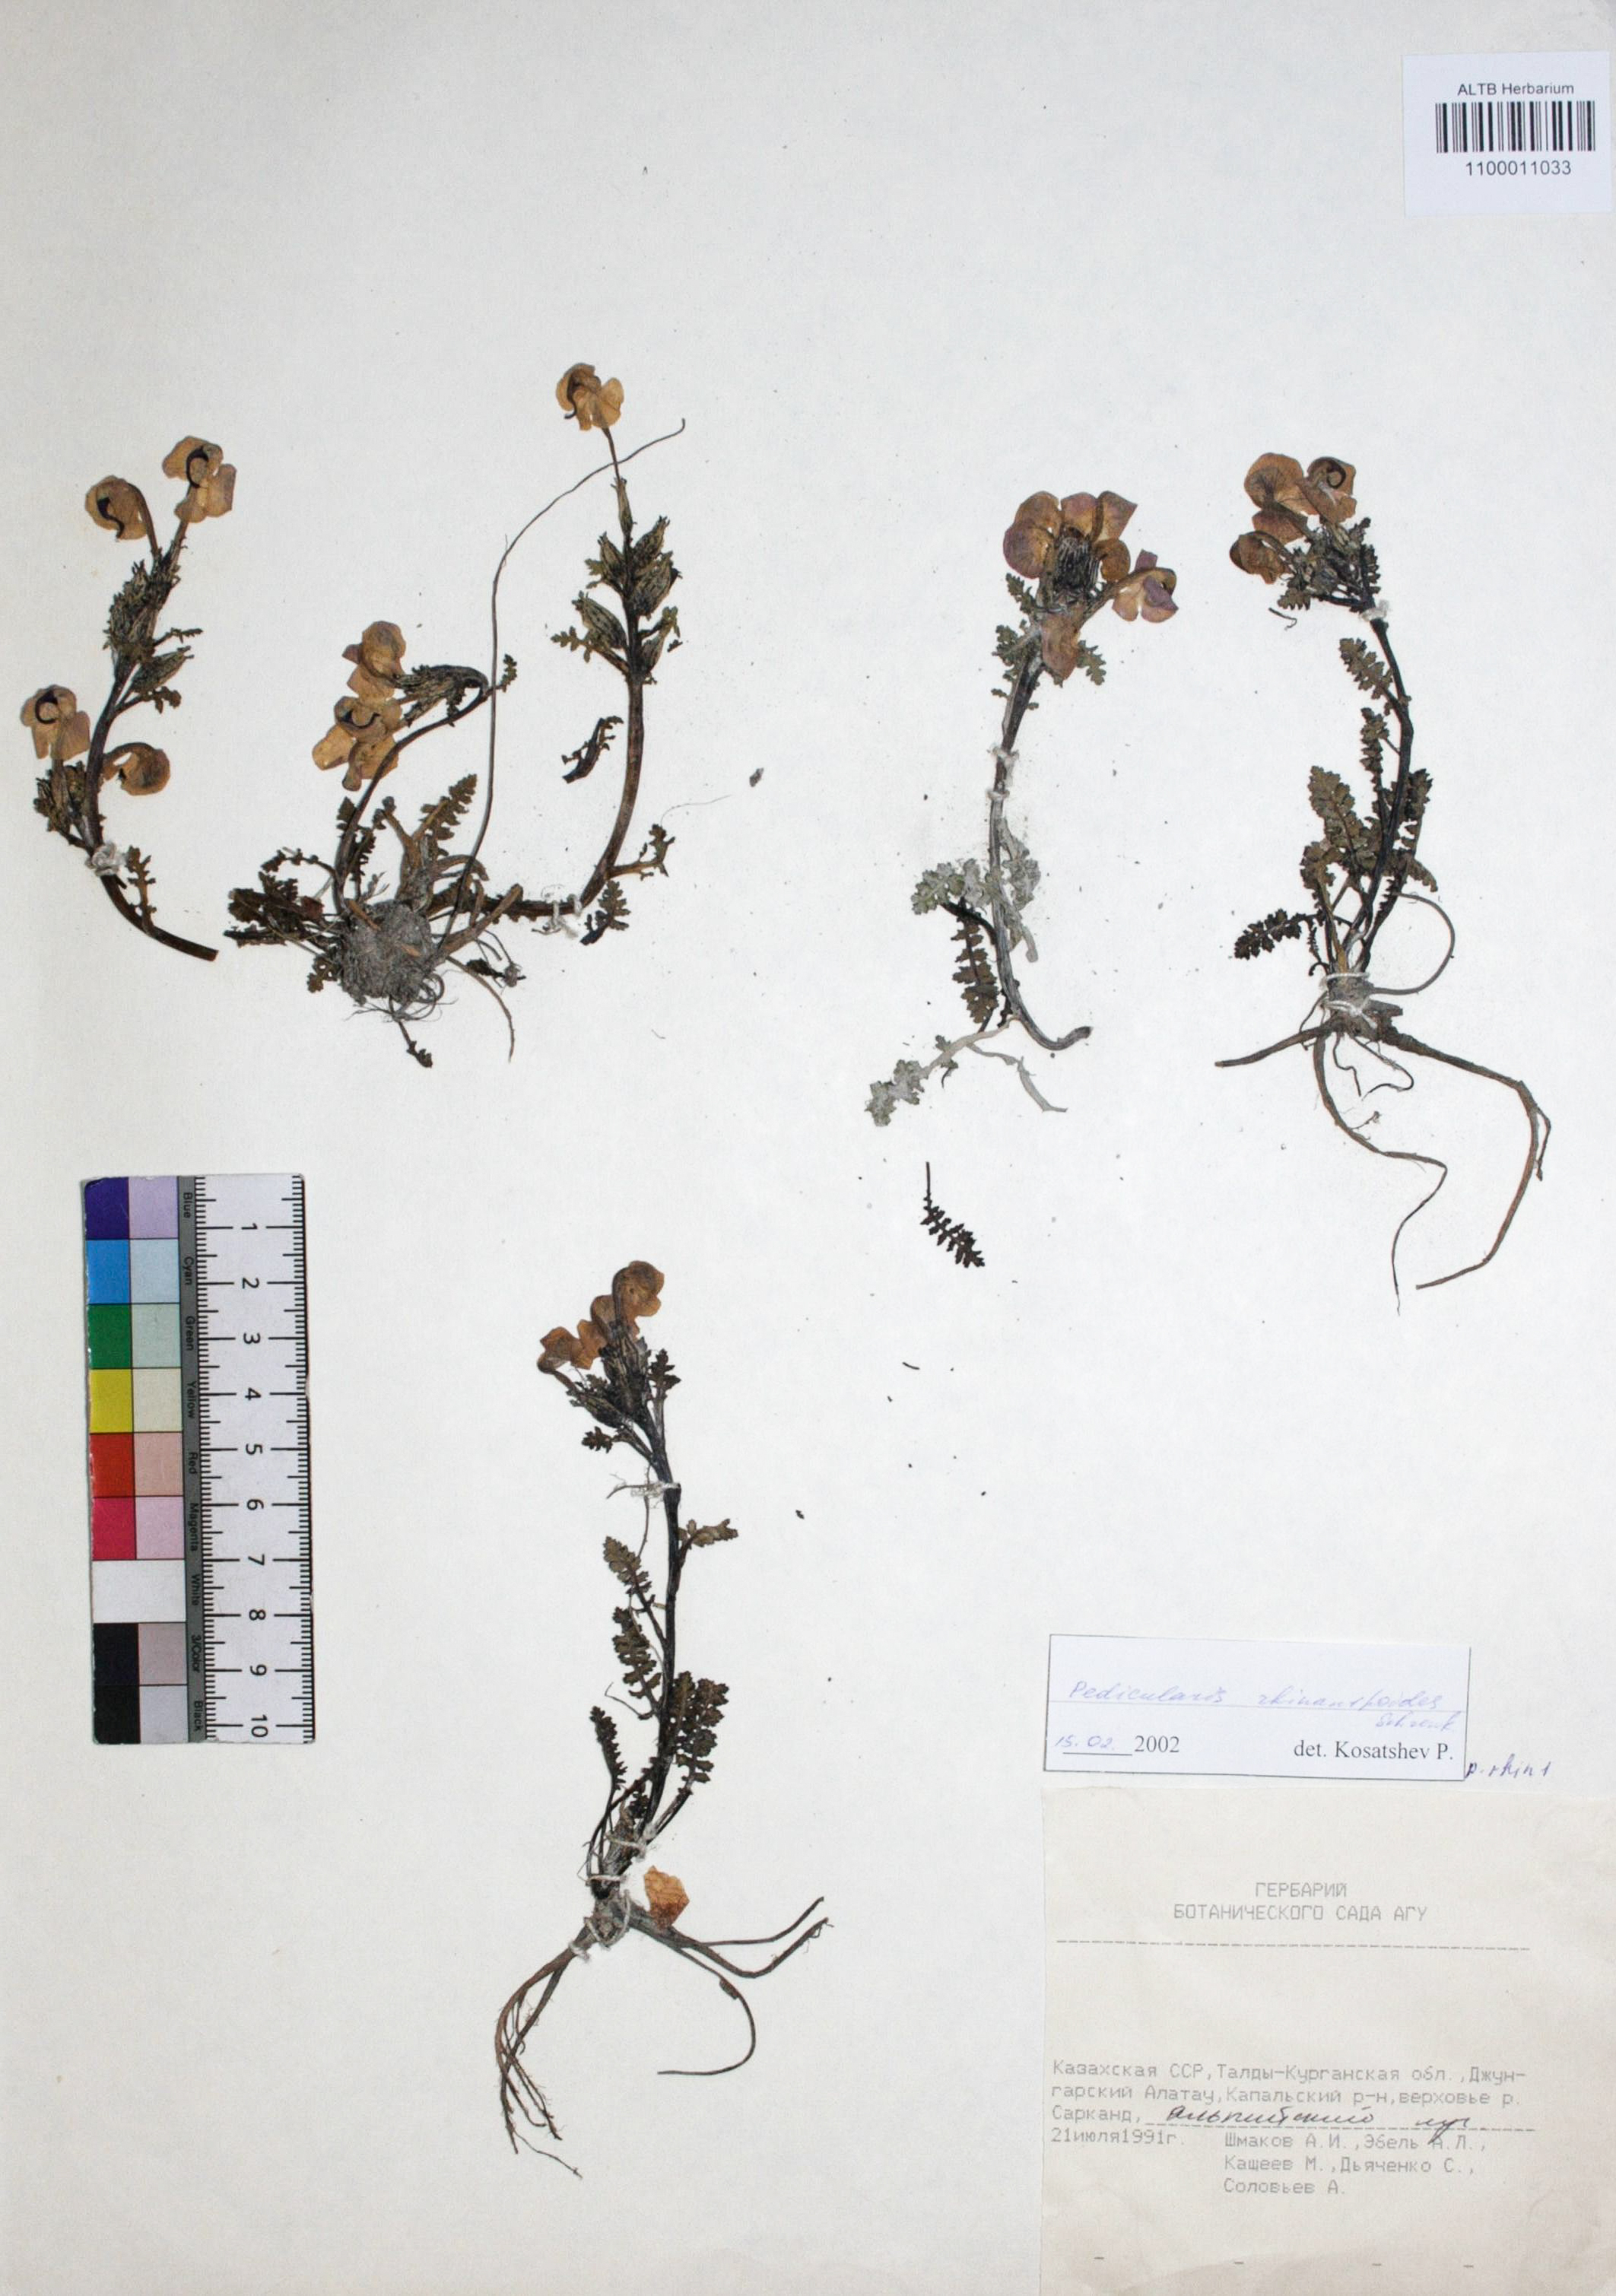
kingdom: Plantae
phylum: Tracheophyta
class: Magnoliopsida
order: Lamiales
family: Orobanchaceae
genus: Pedicularis
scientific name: Pedicularis rhinanthoides
